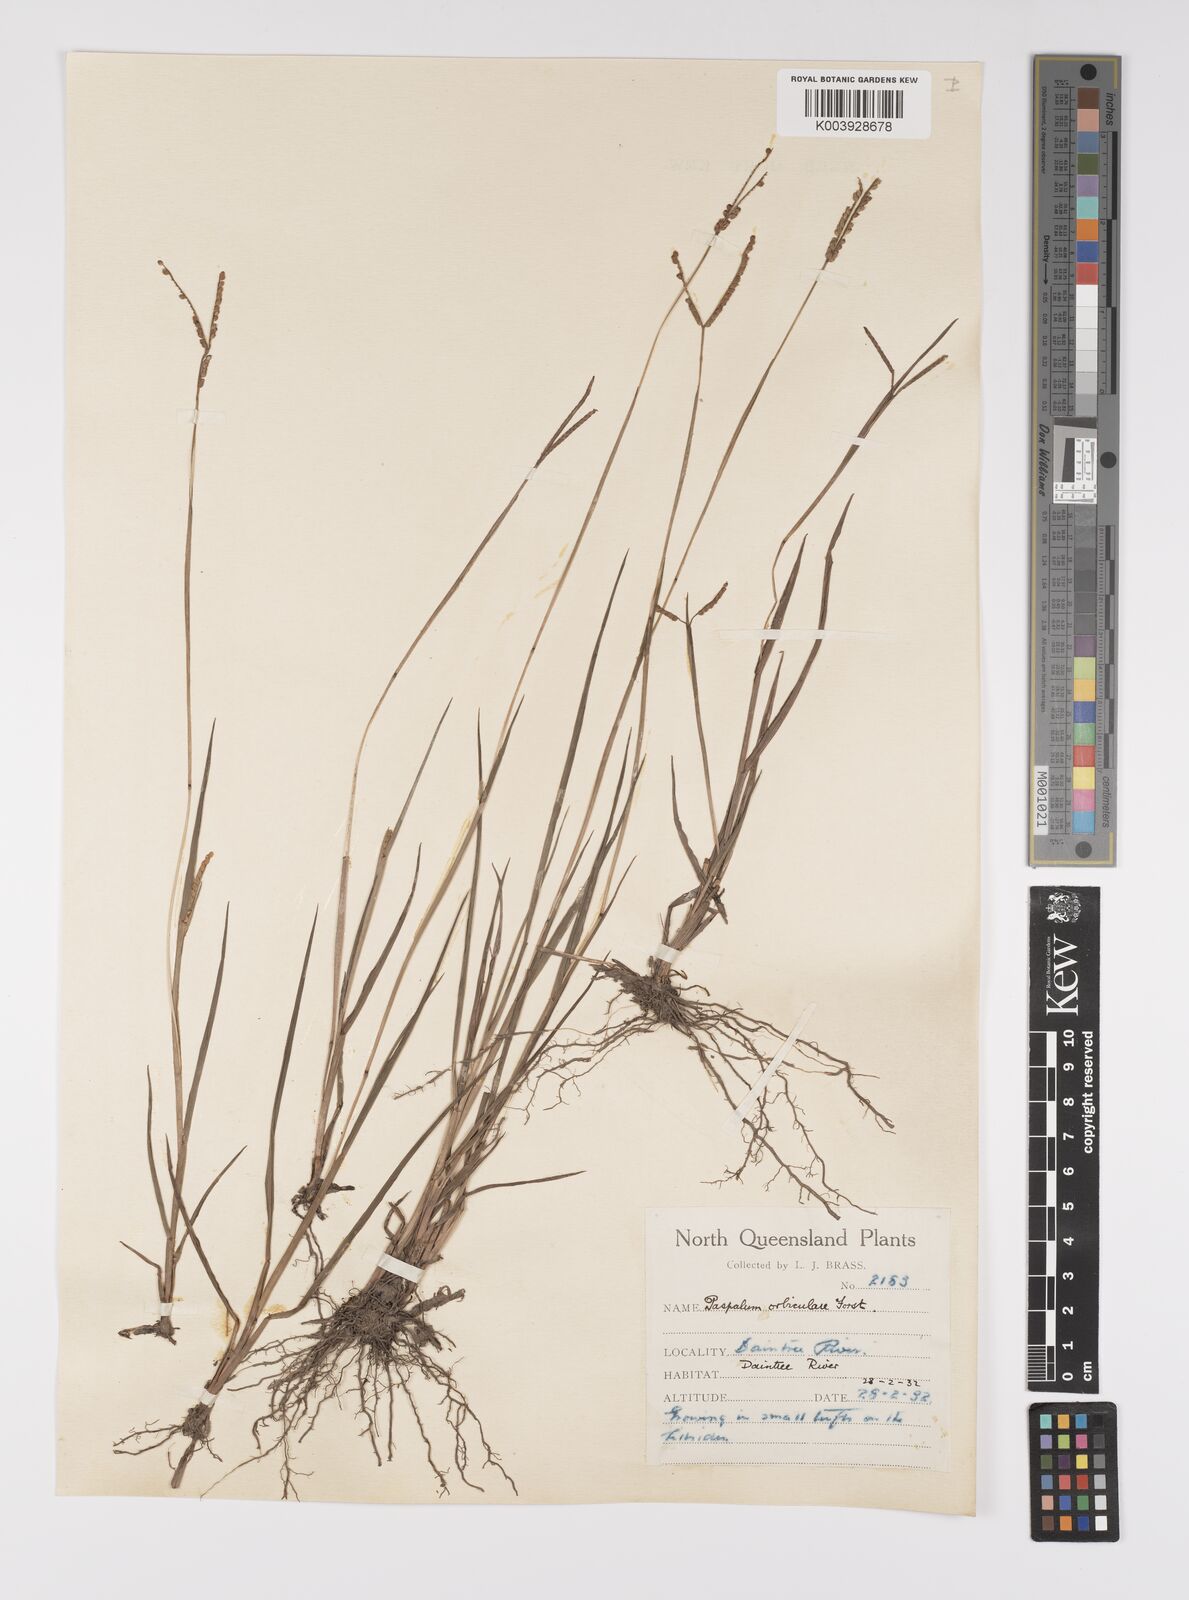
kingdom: Plantae
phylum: Tracheophyta
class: Liliopsida
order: Poales
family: Poaceae
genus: Paspalum
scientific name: Paspalum scrobiculatum
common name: Kodo millet
